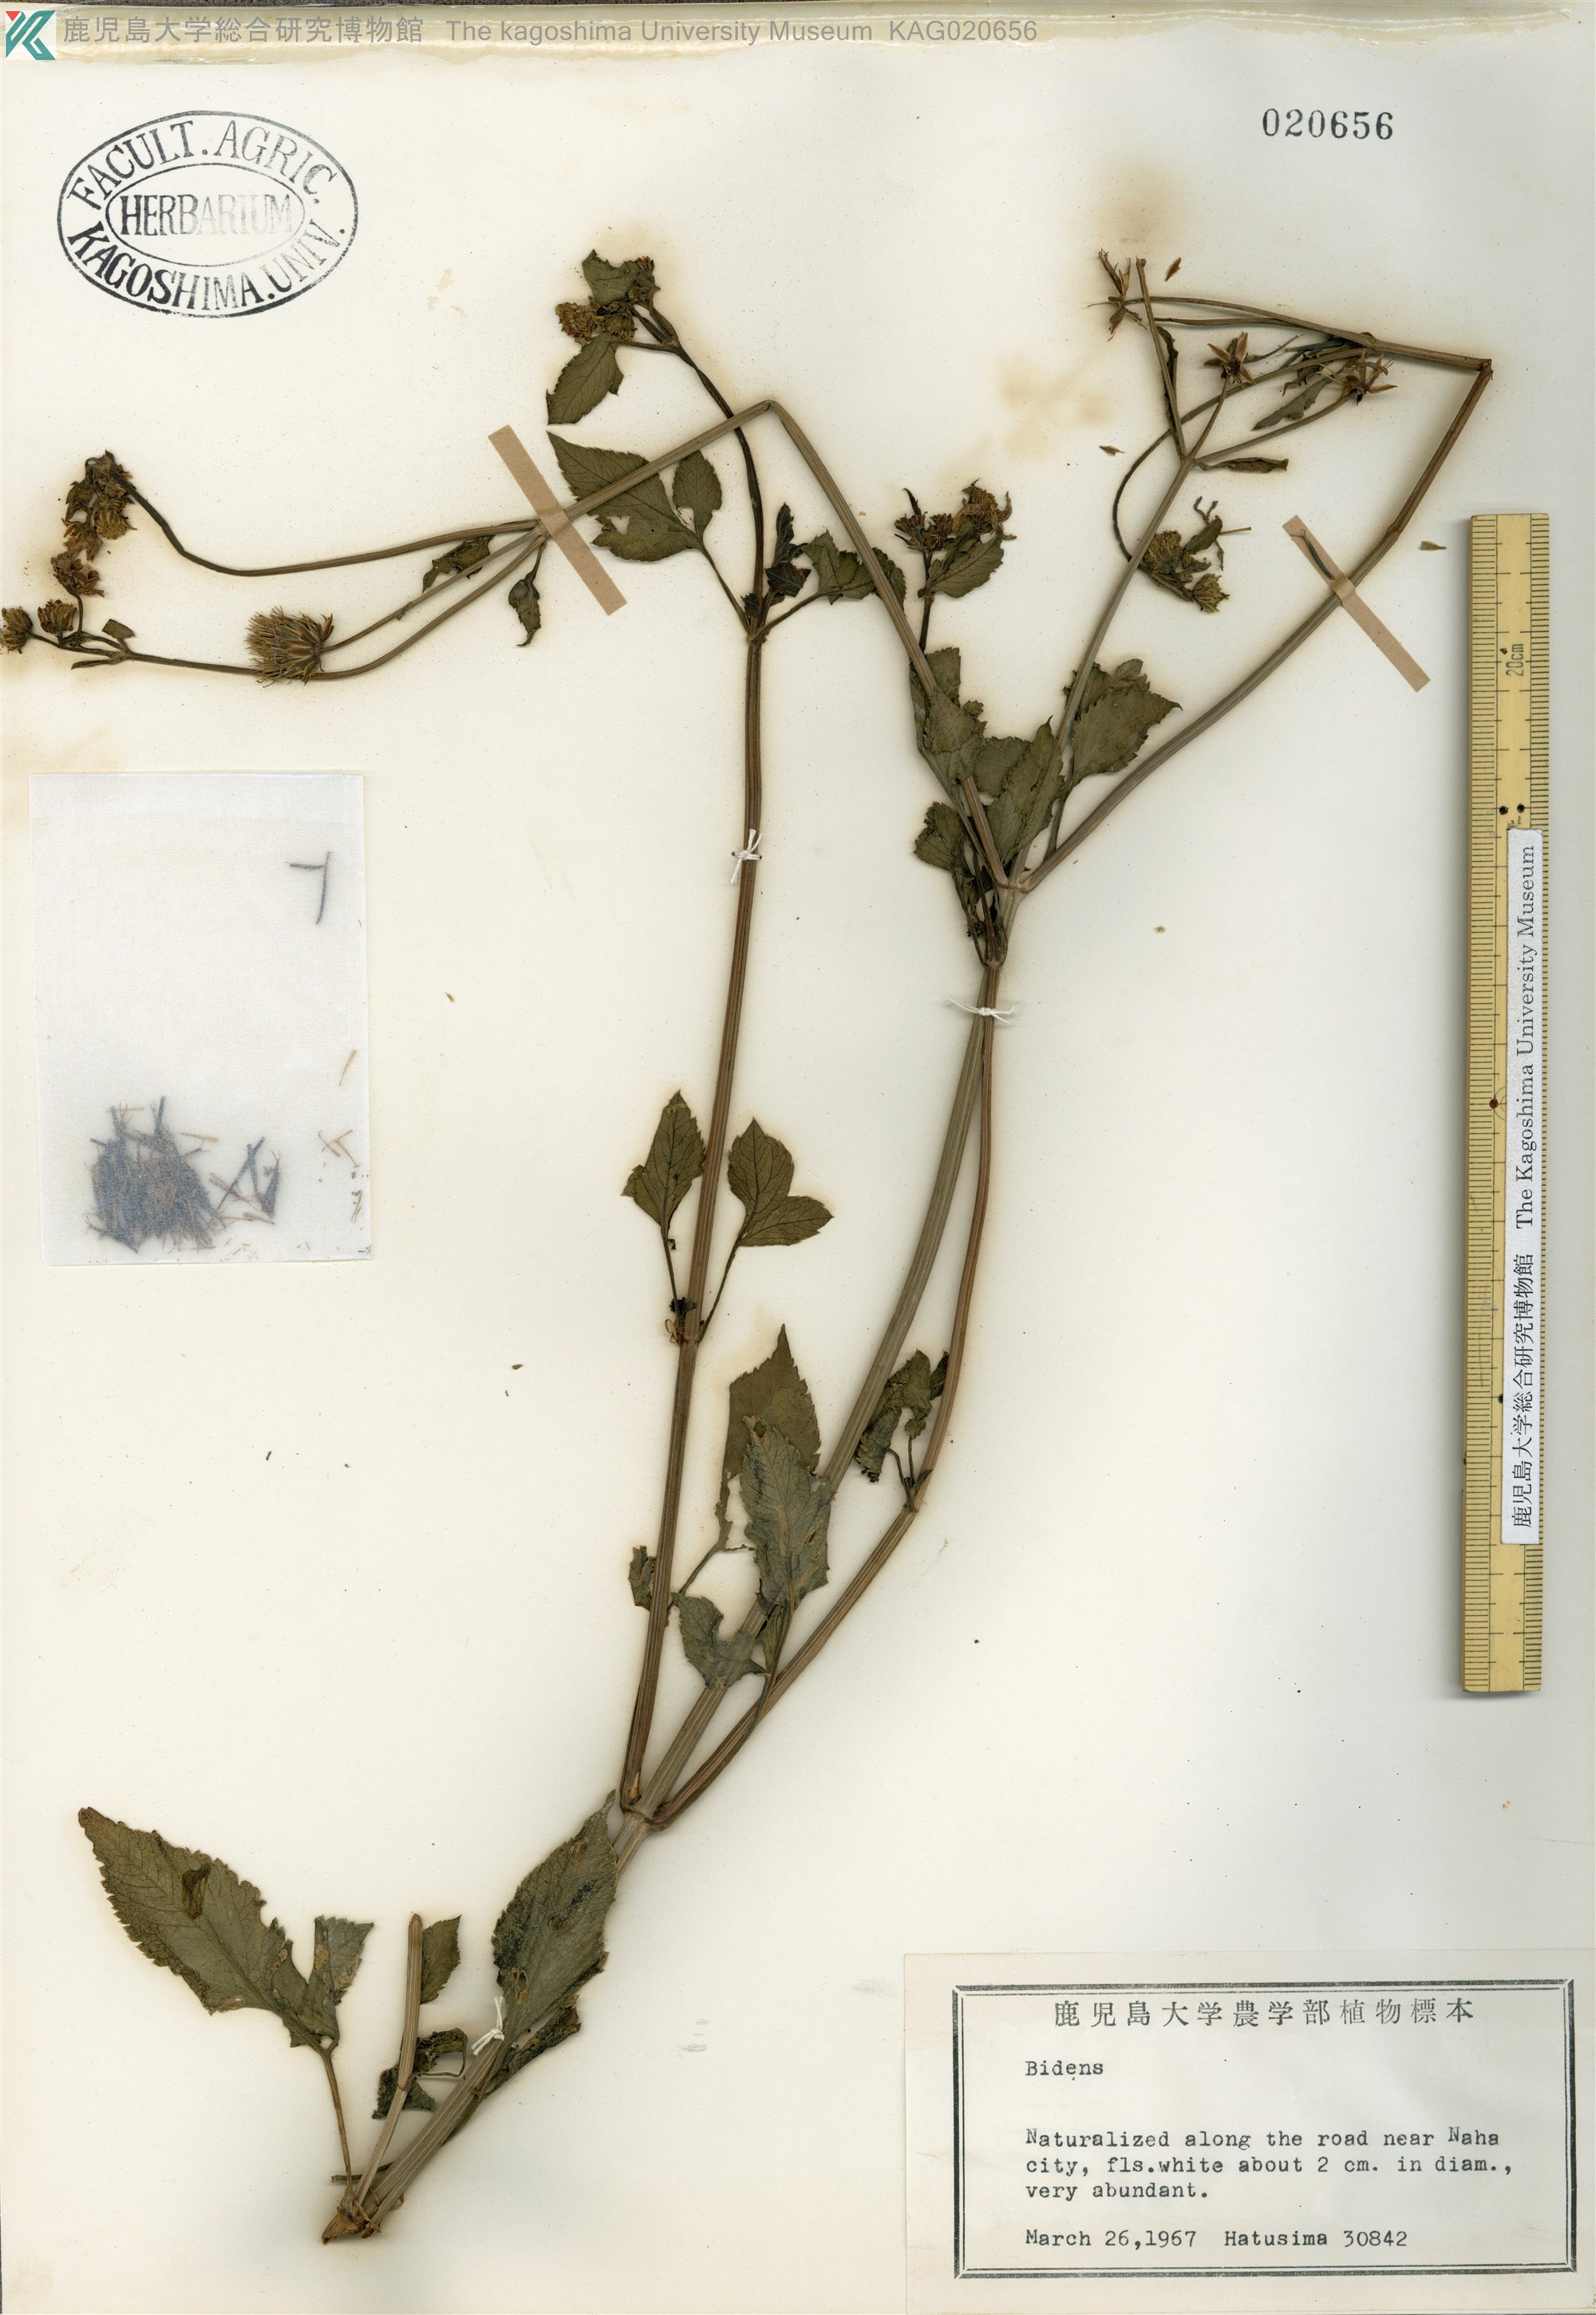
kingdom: Plantae
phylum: Tracheophyta
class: Magnoliopsida
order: Asterales
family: Asteraceae
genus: Bidens
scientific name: Bidens
